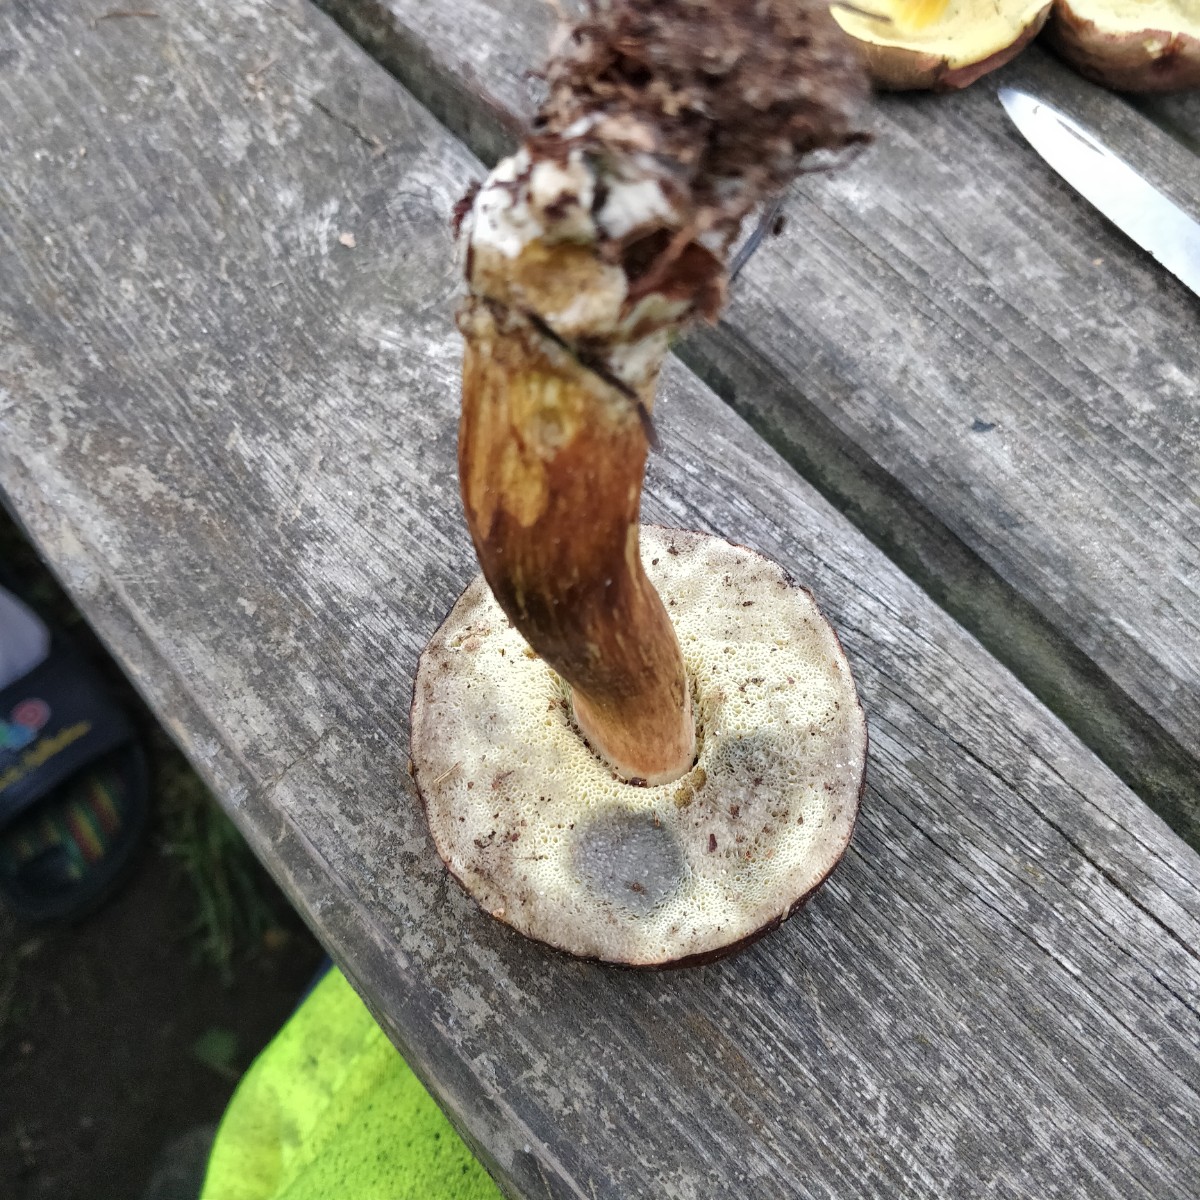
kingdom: Fungi
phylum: Basidiomycota
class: Agaricomycetes
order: Boletales
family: Boletaceae
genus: Imleria
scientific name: Imleria badia
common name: brunstokket rørhat
